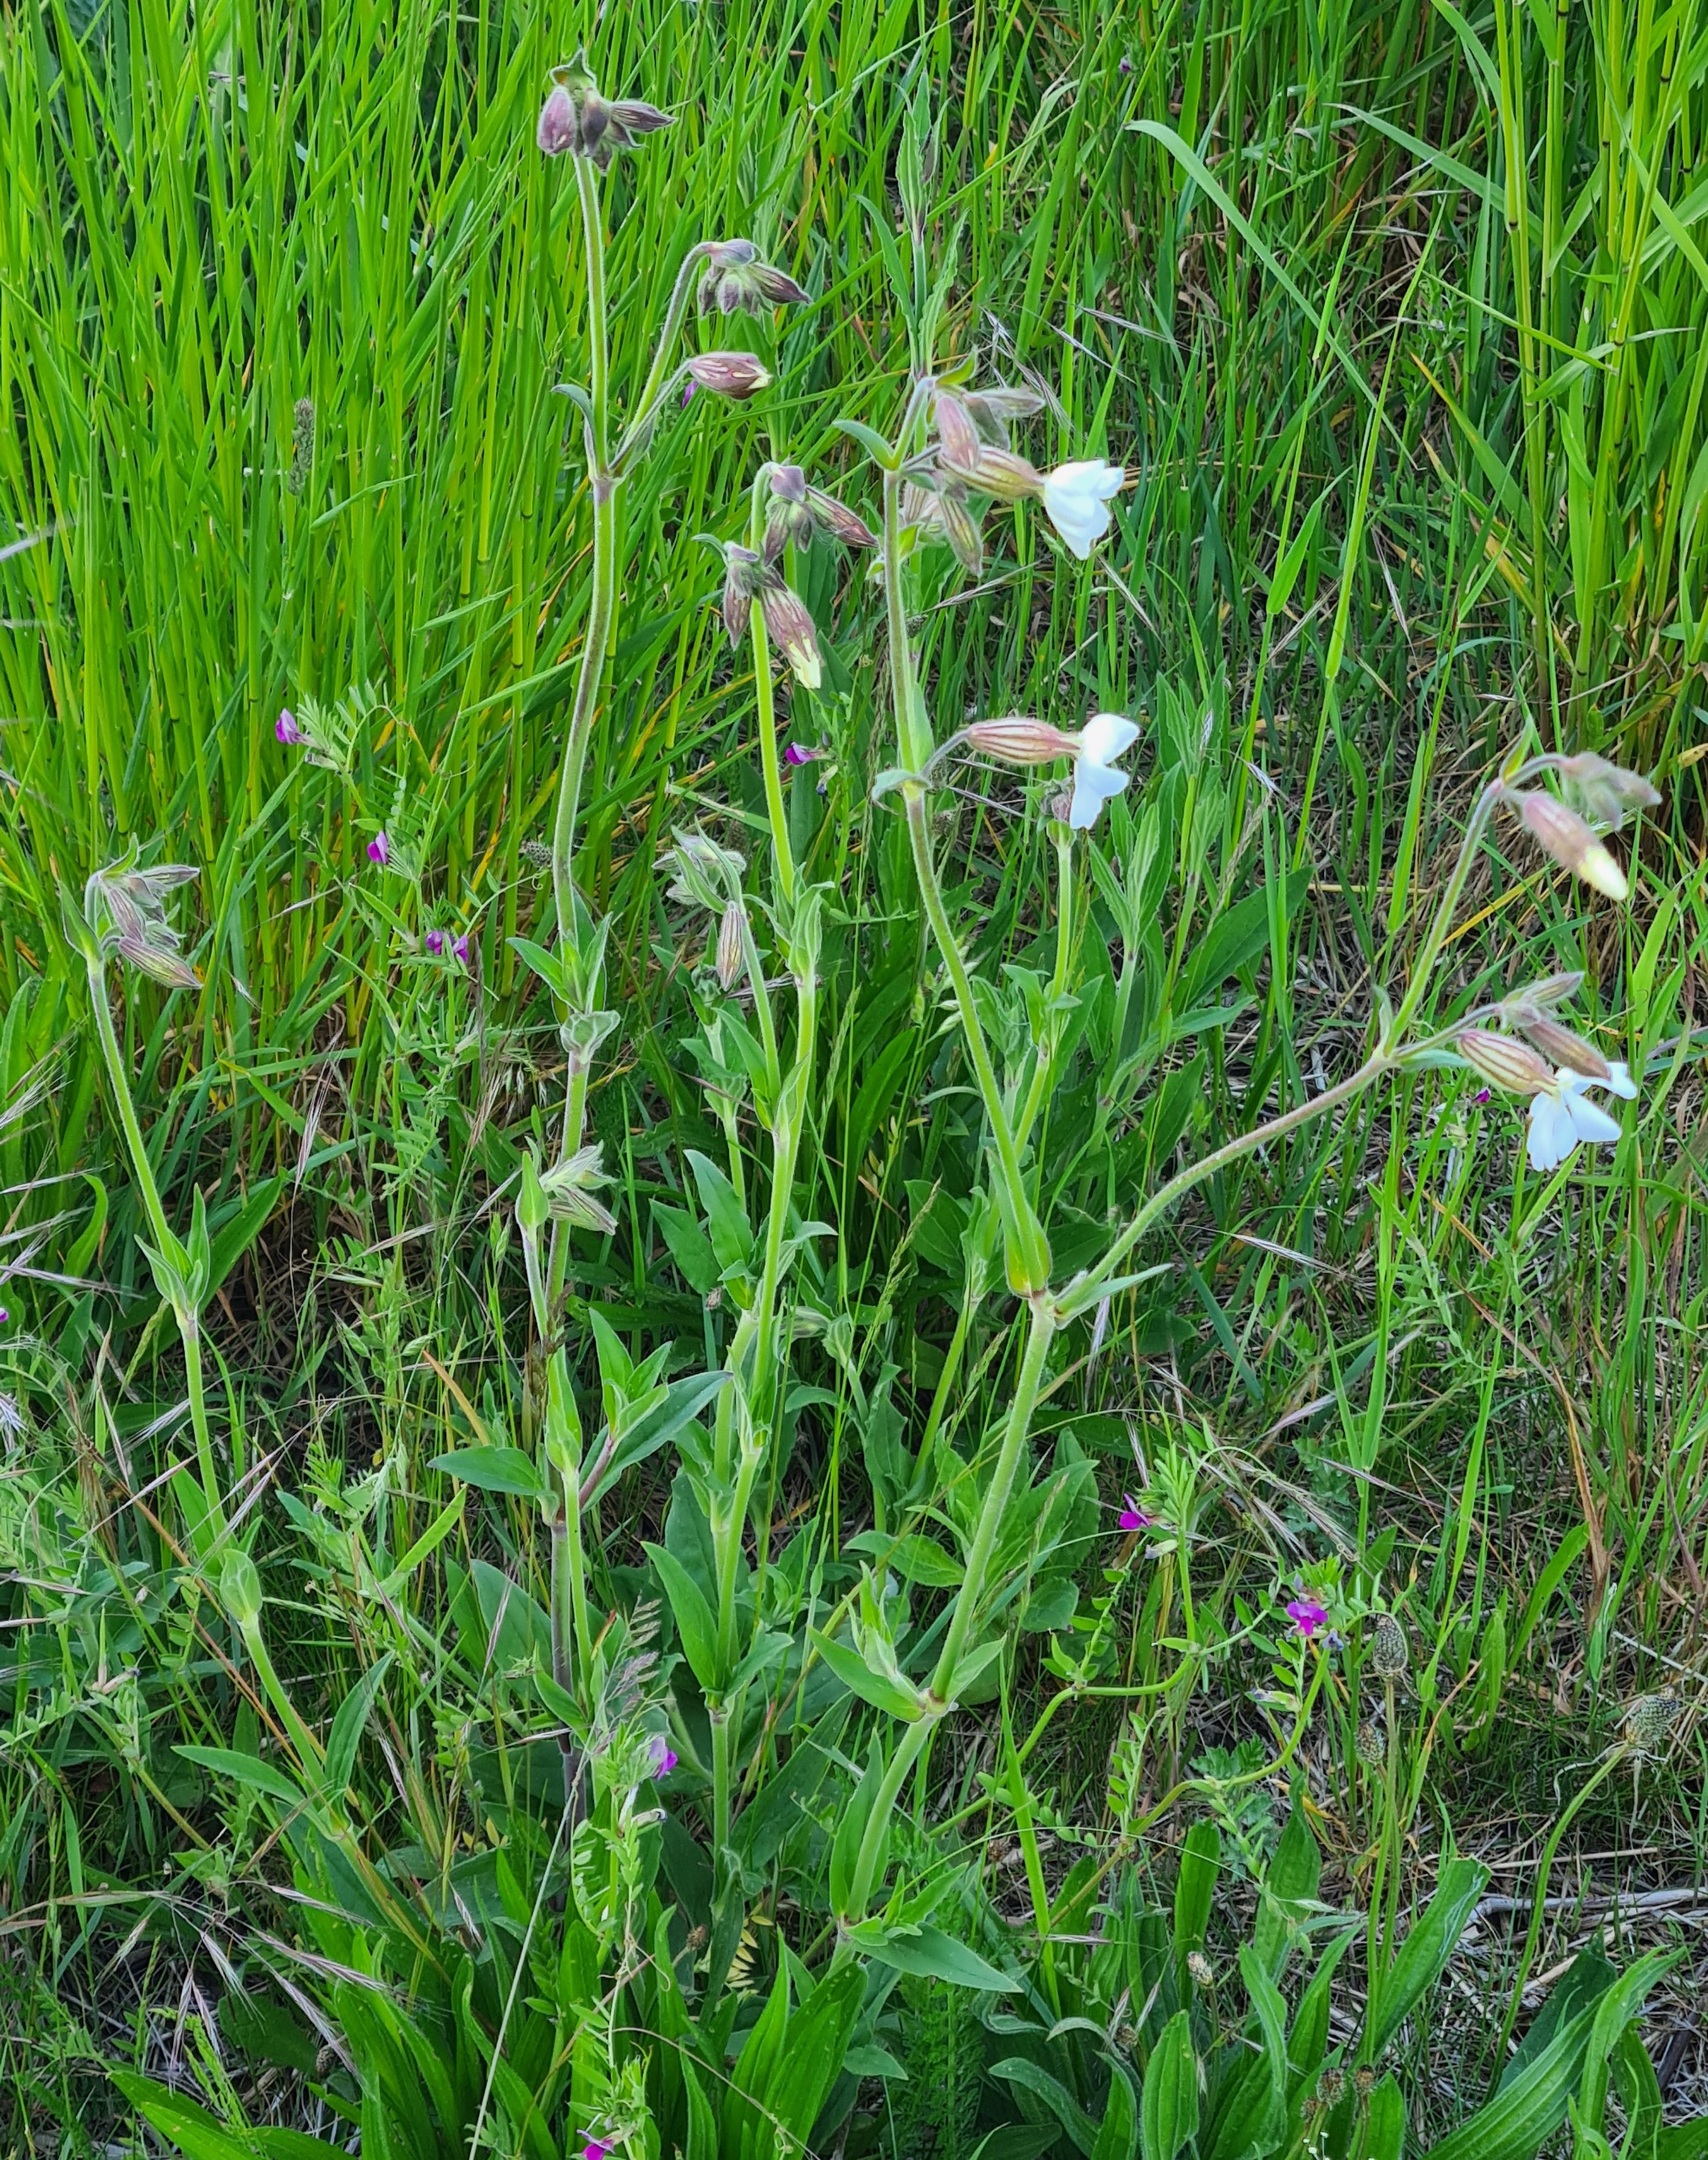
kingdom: Plantae
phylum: Tracheophyta
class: Magnoliopsida
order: Caryophyllales
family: Caryophyllaceae
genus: Silene
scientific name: Silene latifolia
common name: Aftenpragtstjerne
